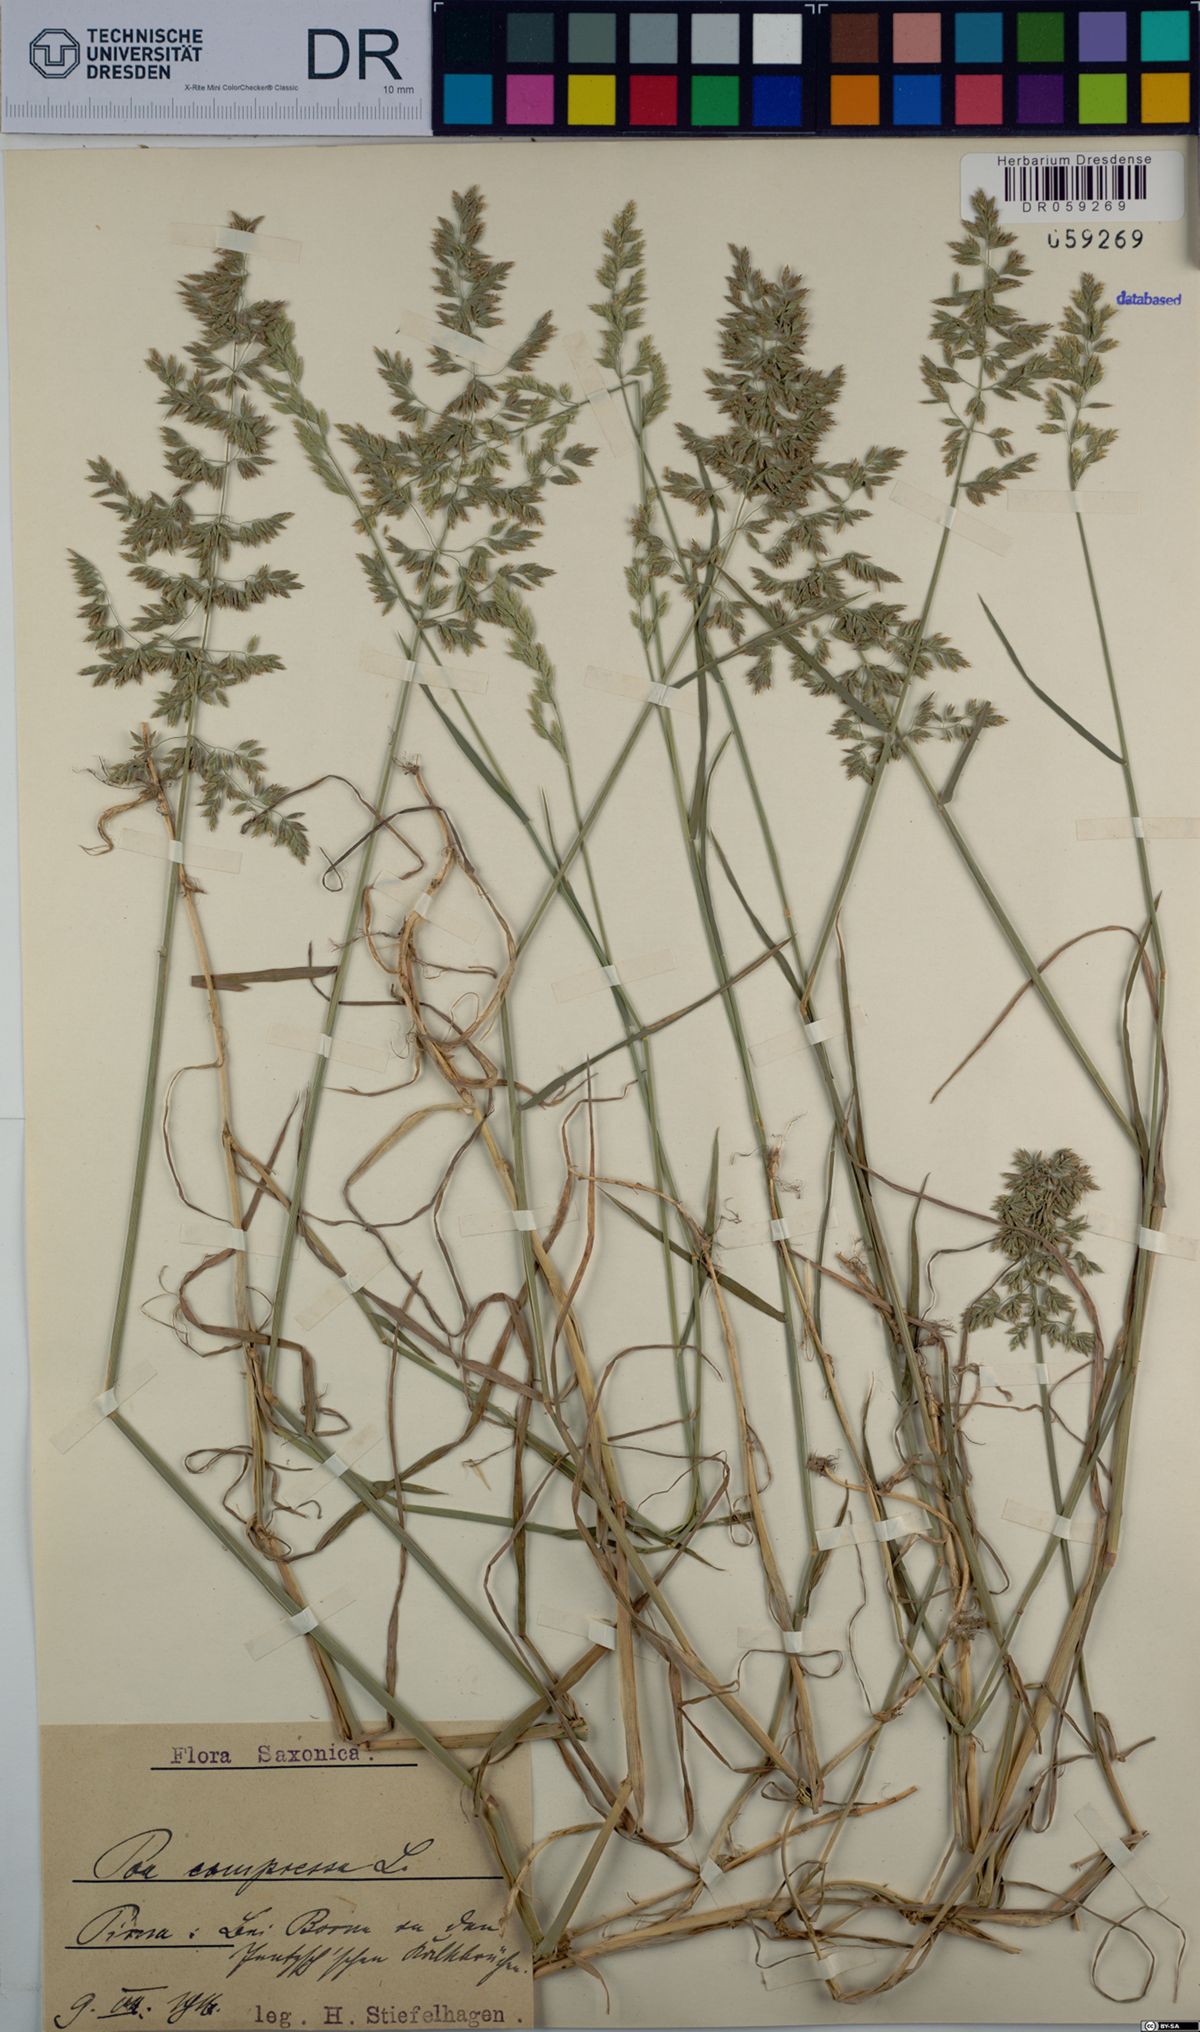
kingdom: Plantae
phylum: Tracheophyta
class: Liliopsida
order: Poales
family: Poaceae
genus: Poa
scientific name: Poa compressa
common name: Canada bluegrass
